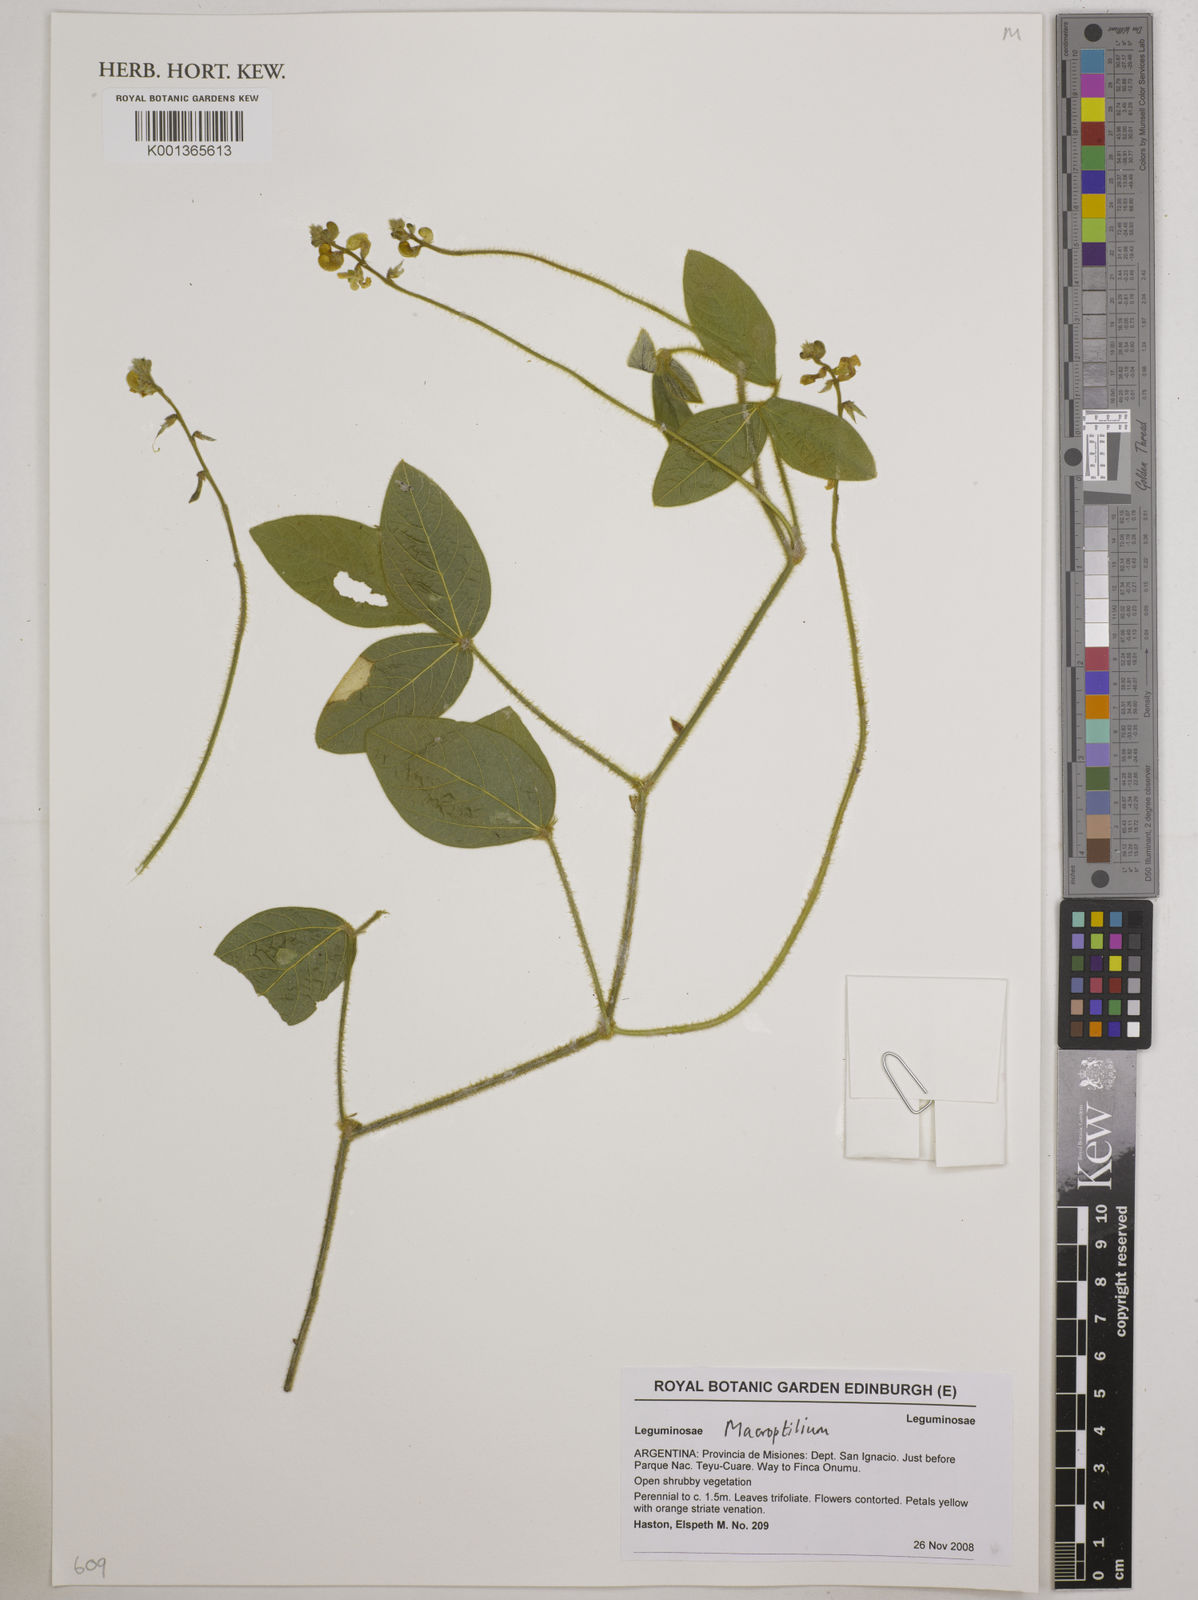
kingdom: Plantae
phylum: Tracheophyta
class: Magnoliopsida
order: Fabales
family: Fabaceae
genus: Macroptilium
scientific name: Macroptilium
